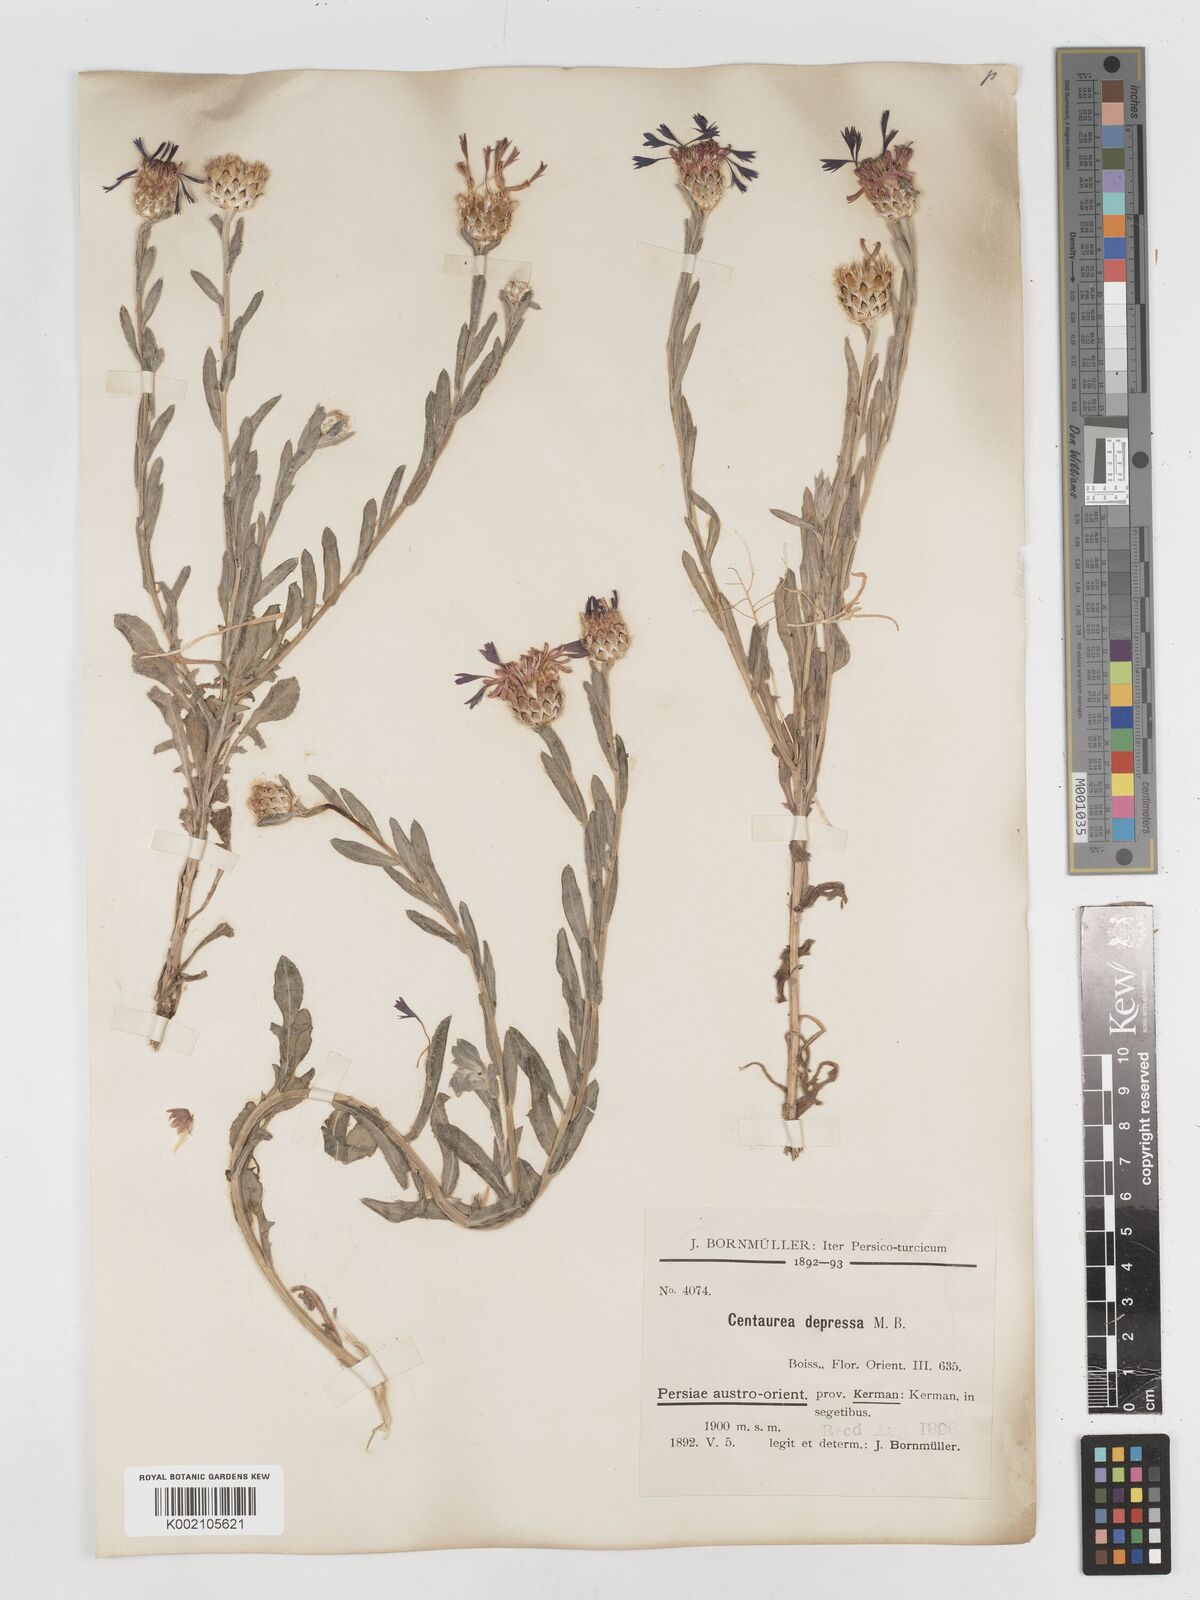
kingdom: Plantae
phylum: Tracheophyta
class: Magnoliopsida
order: Asterales
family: Asteraceae
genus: Centaurea
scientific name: Centaurea depressa
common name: Iranian knapweed
